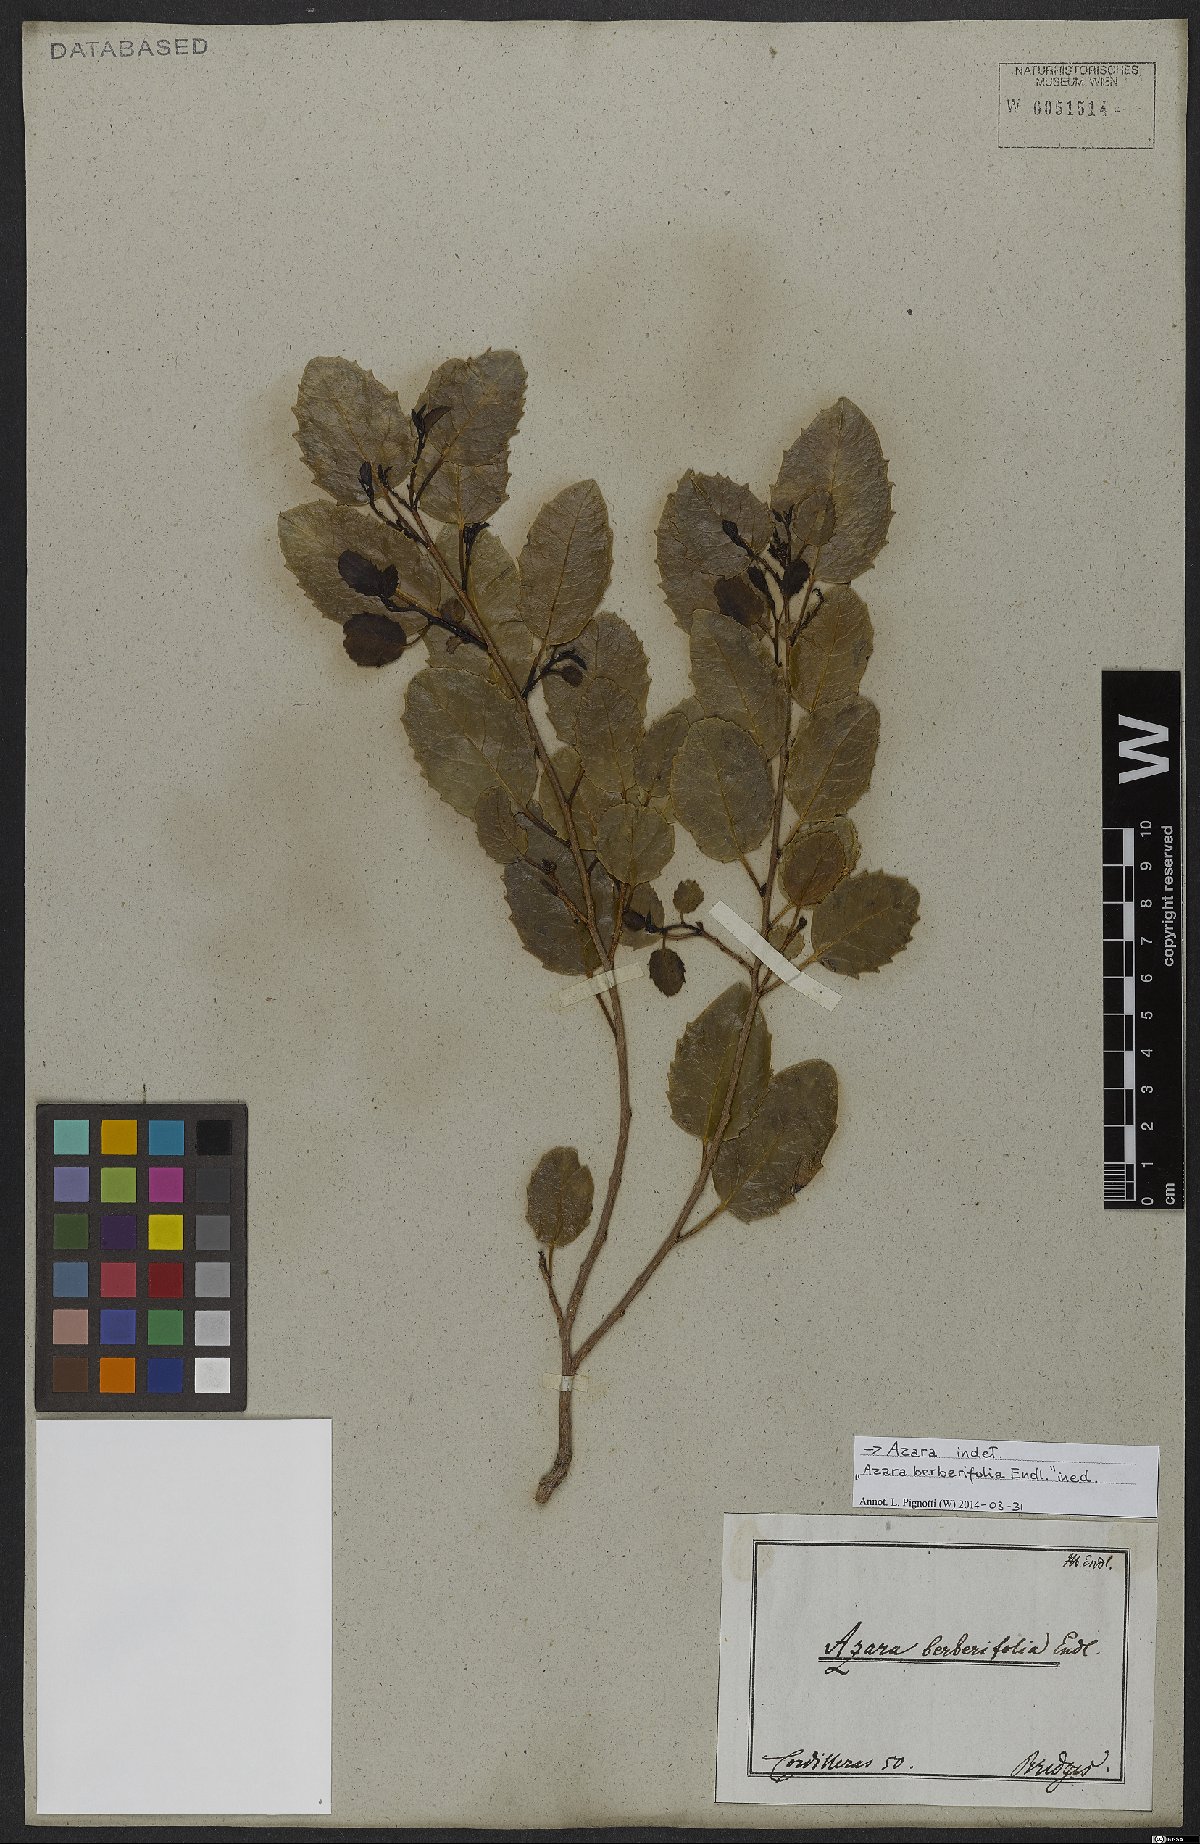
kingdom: Plantae
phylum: Tracheophyta
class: Magnoliopsida
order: Malpighiales
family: Salicaceae
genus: Azara
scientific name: Azara
